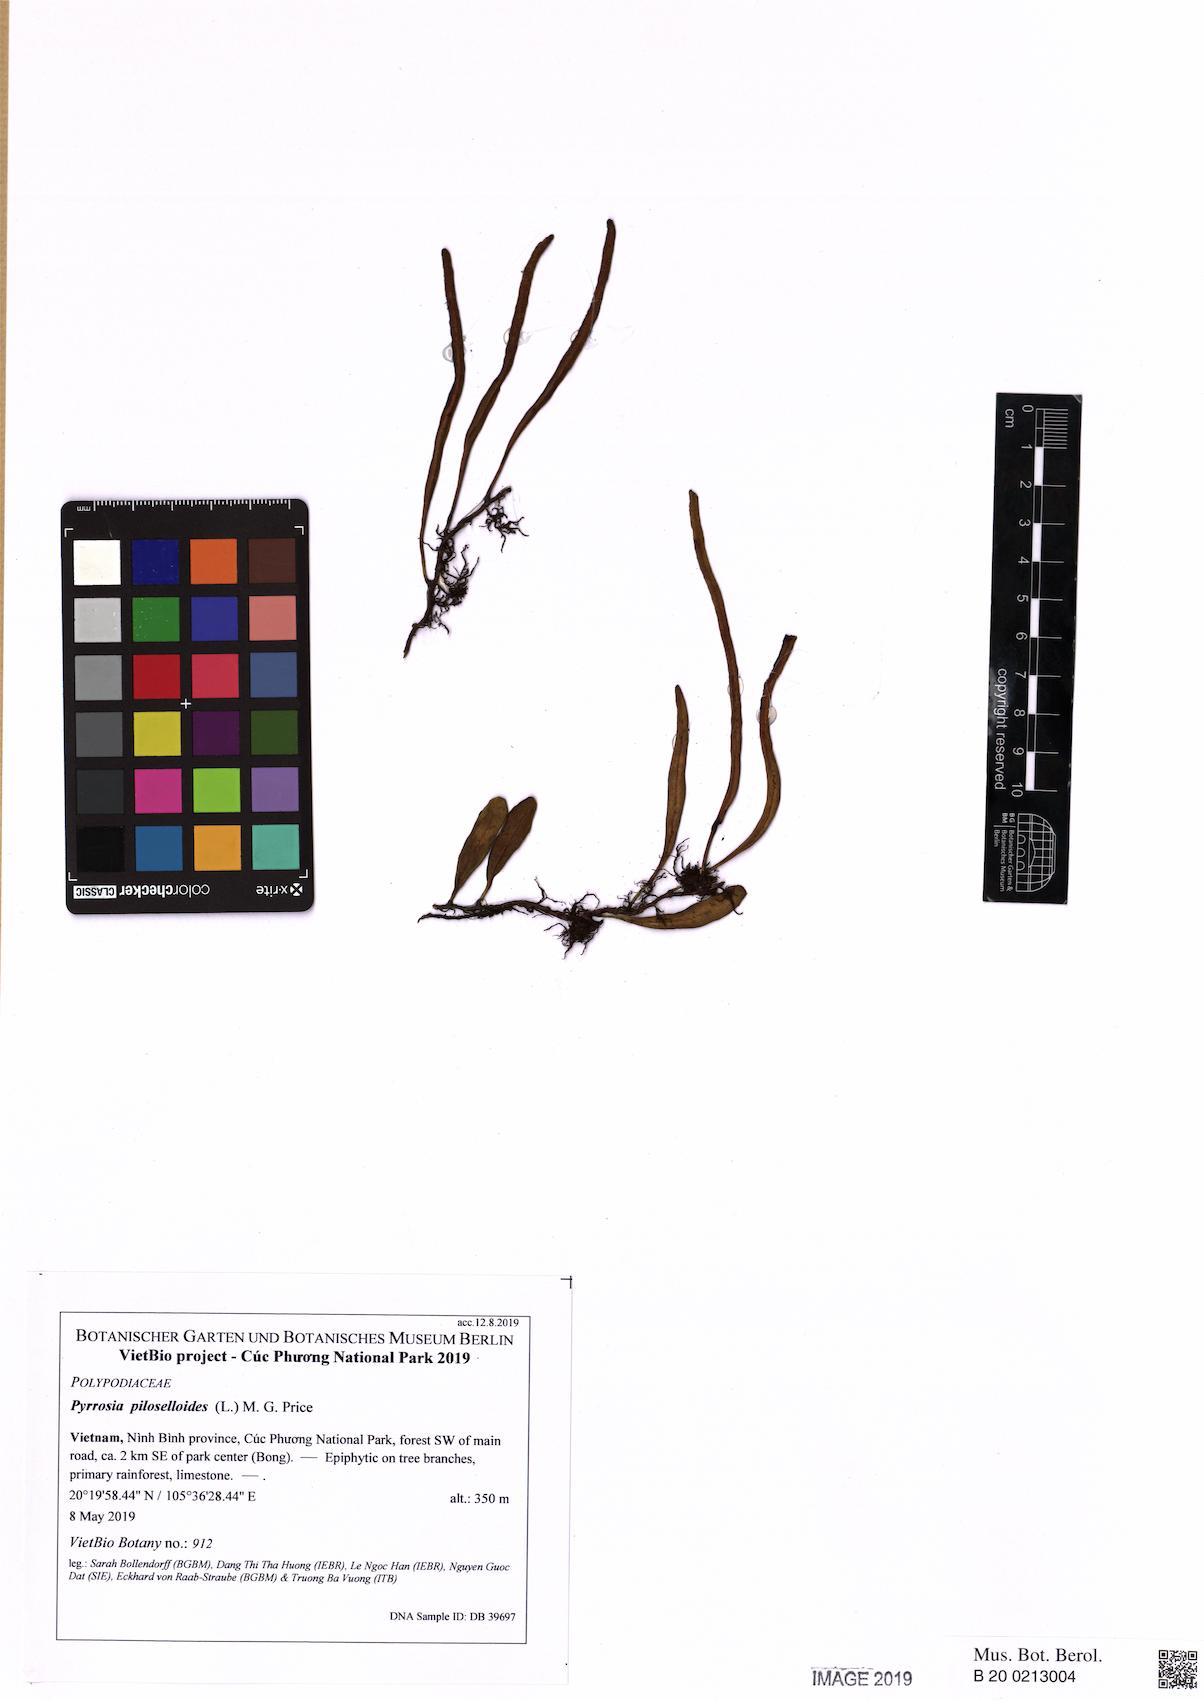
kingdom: Plantae
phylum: Tracheophyta
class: Polypodiopsida
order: Polypodiales
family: Polypodiaceae
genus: Pyrrosia
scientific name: Pyrrosia adnascens
